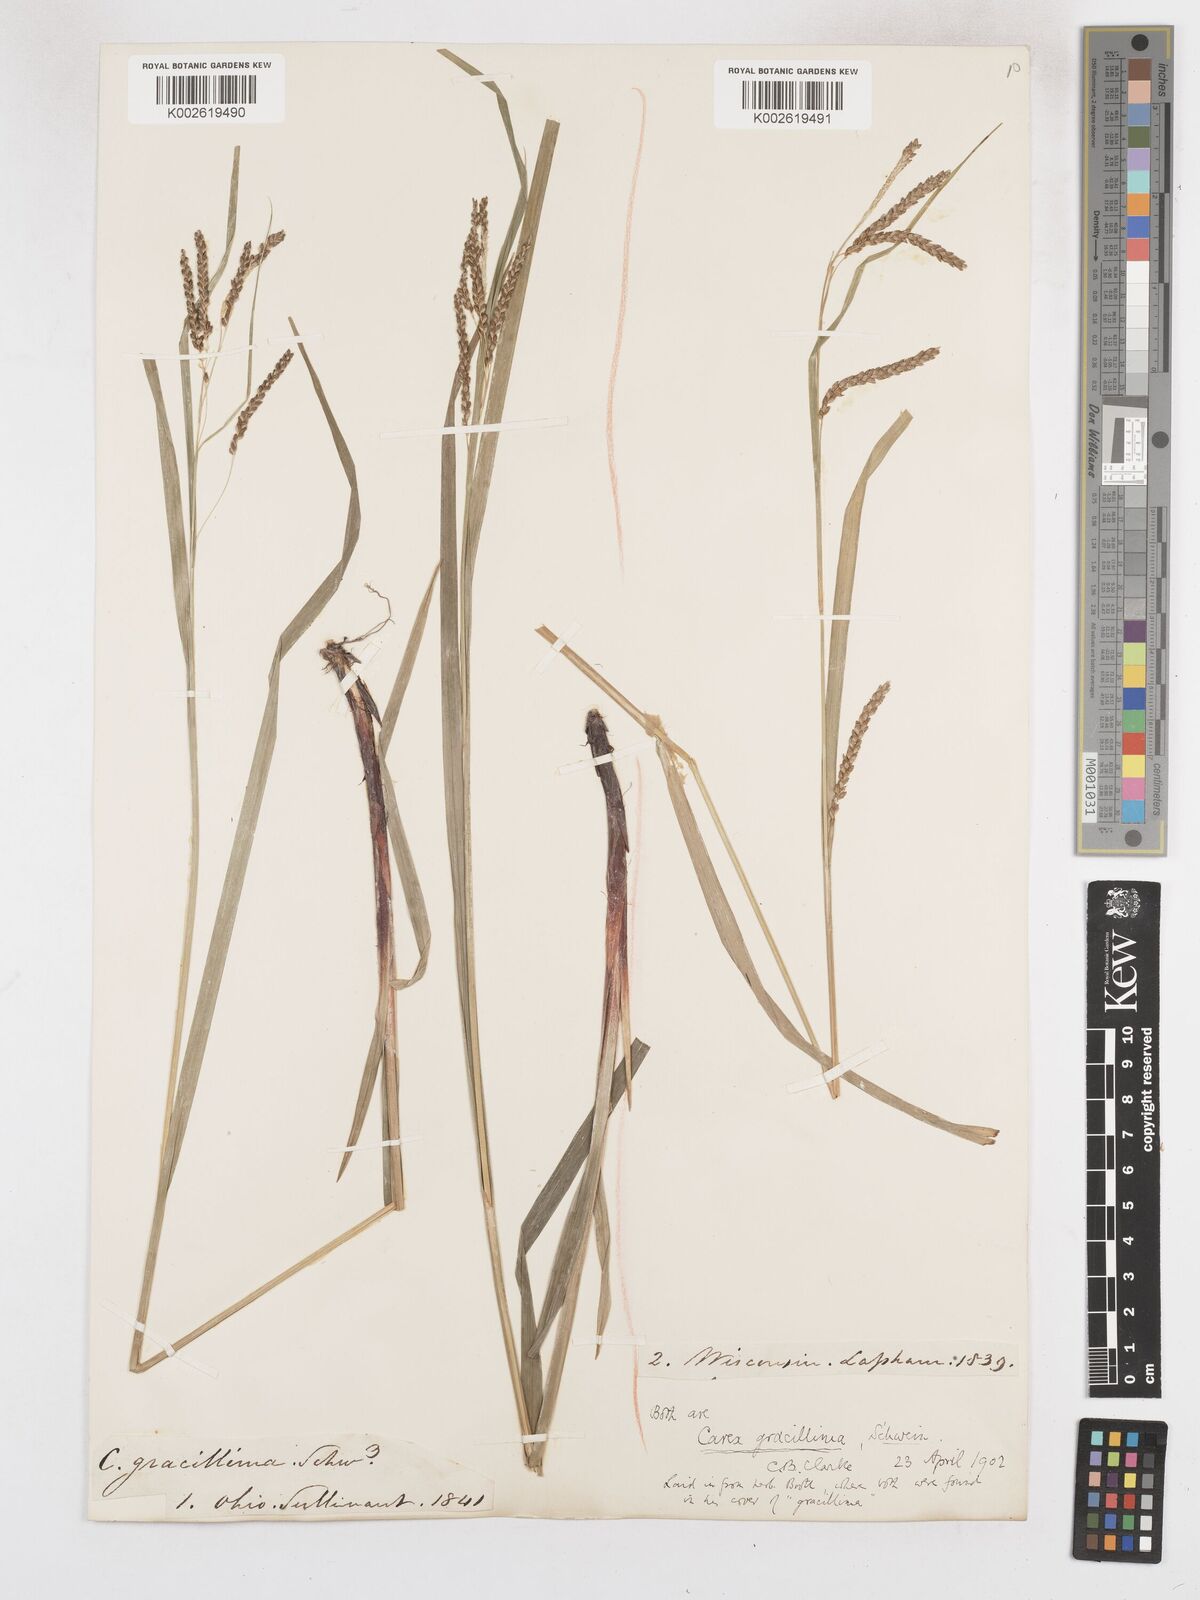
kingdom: Plantae
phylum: Tracheophyta
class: Liliopsida
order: Poales
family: Cyperaceae
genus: Carex
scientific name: Carex gracillima
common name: Graceful sedge
